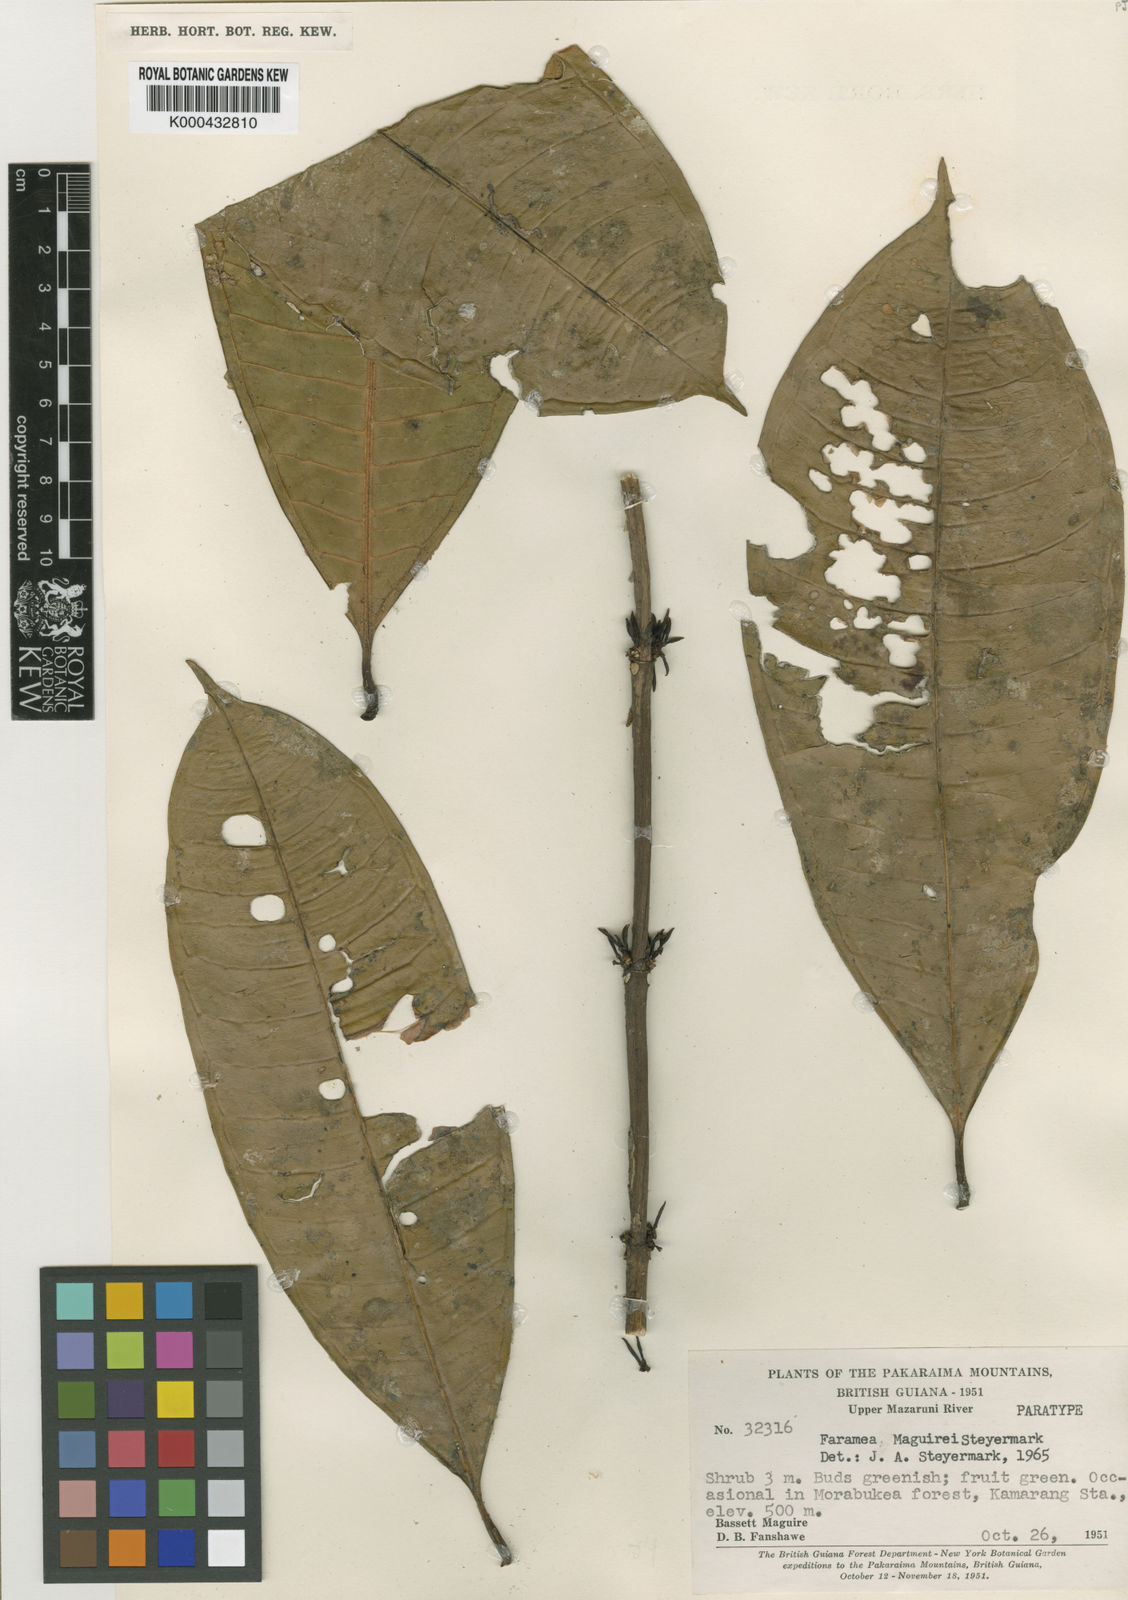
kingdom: Plantae
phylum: Tracheophyta
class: Magnoliopsida
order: Gentianales
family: Rubiaceae
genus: Faramea
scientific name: Faramea maguirei
